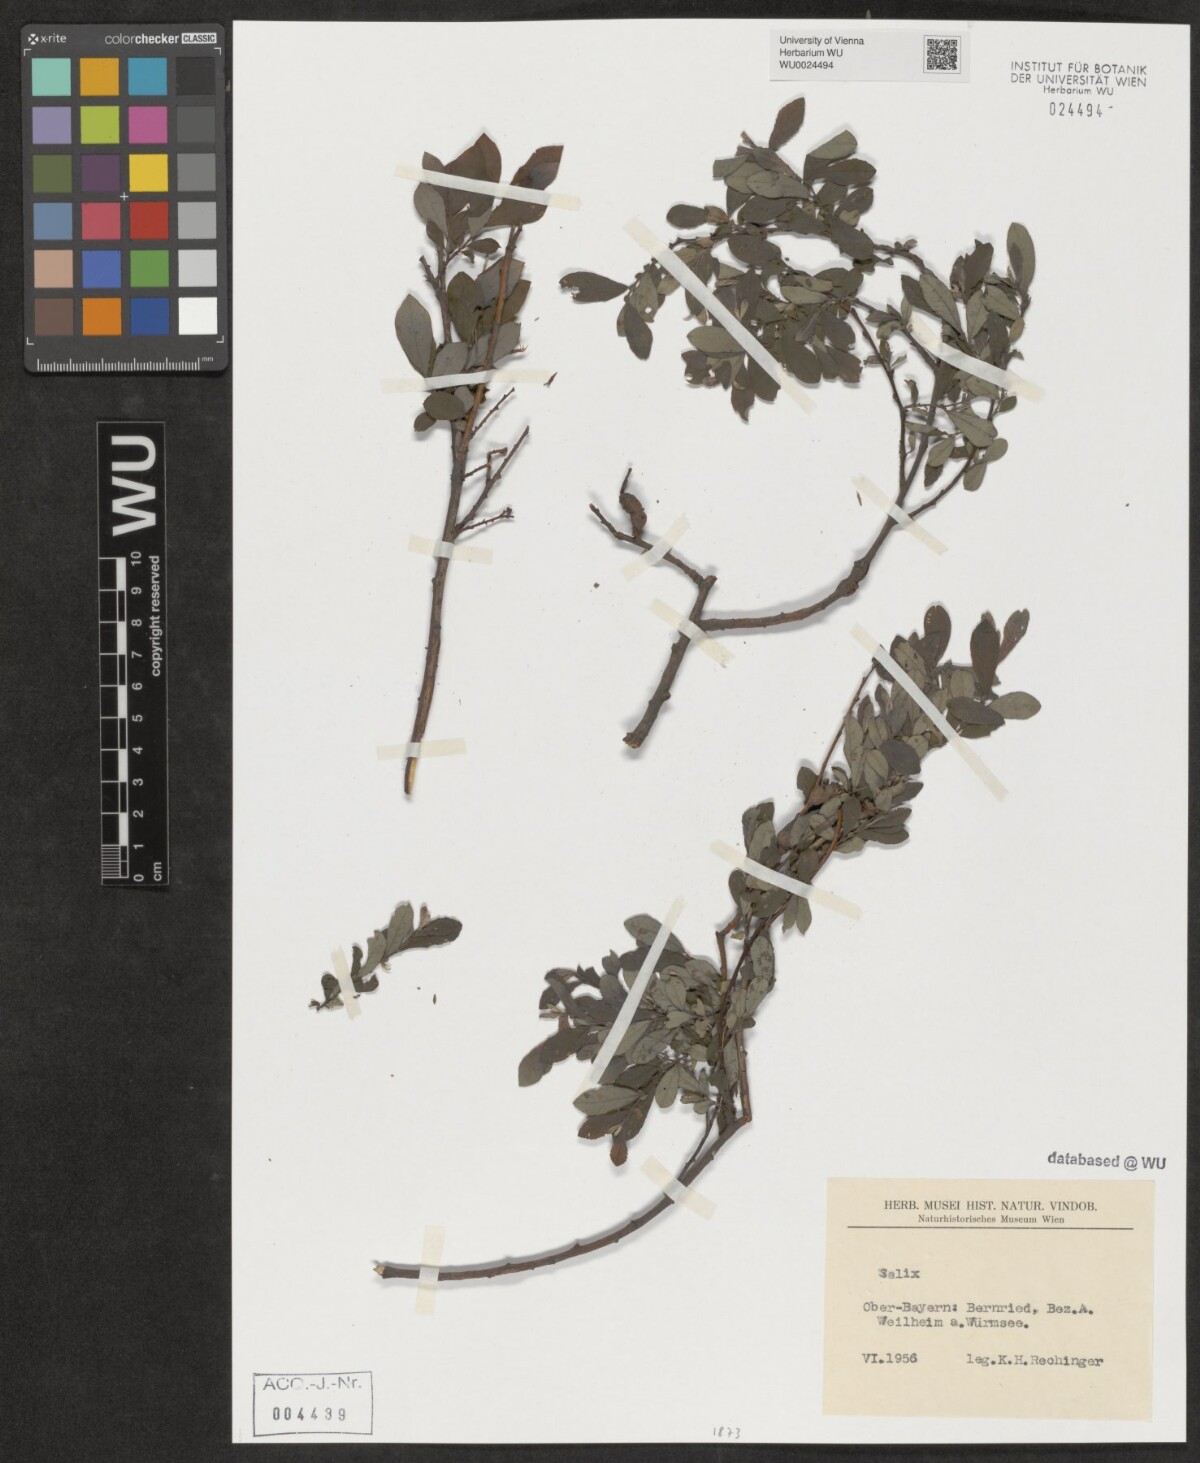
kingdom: Plantae
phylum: Tracheophyta
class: Magnoliopsida
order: Malpighiales
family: Salicaceae
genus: Salix
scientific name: Salix
